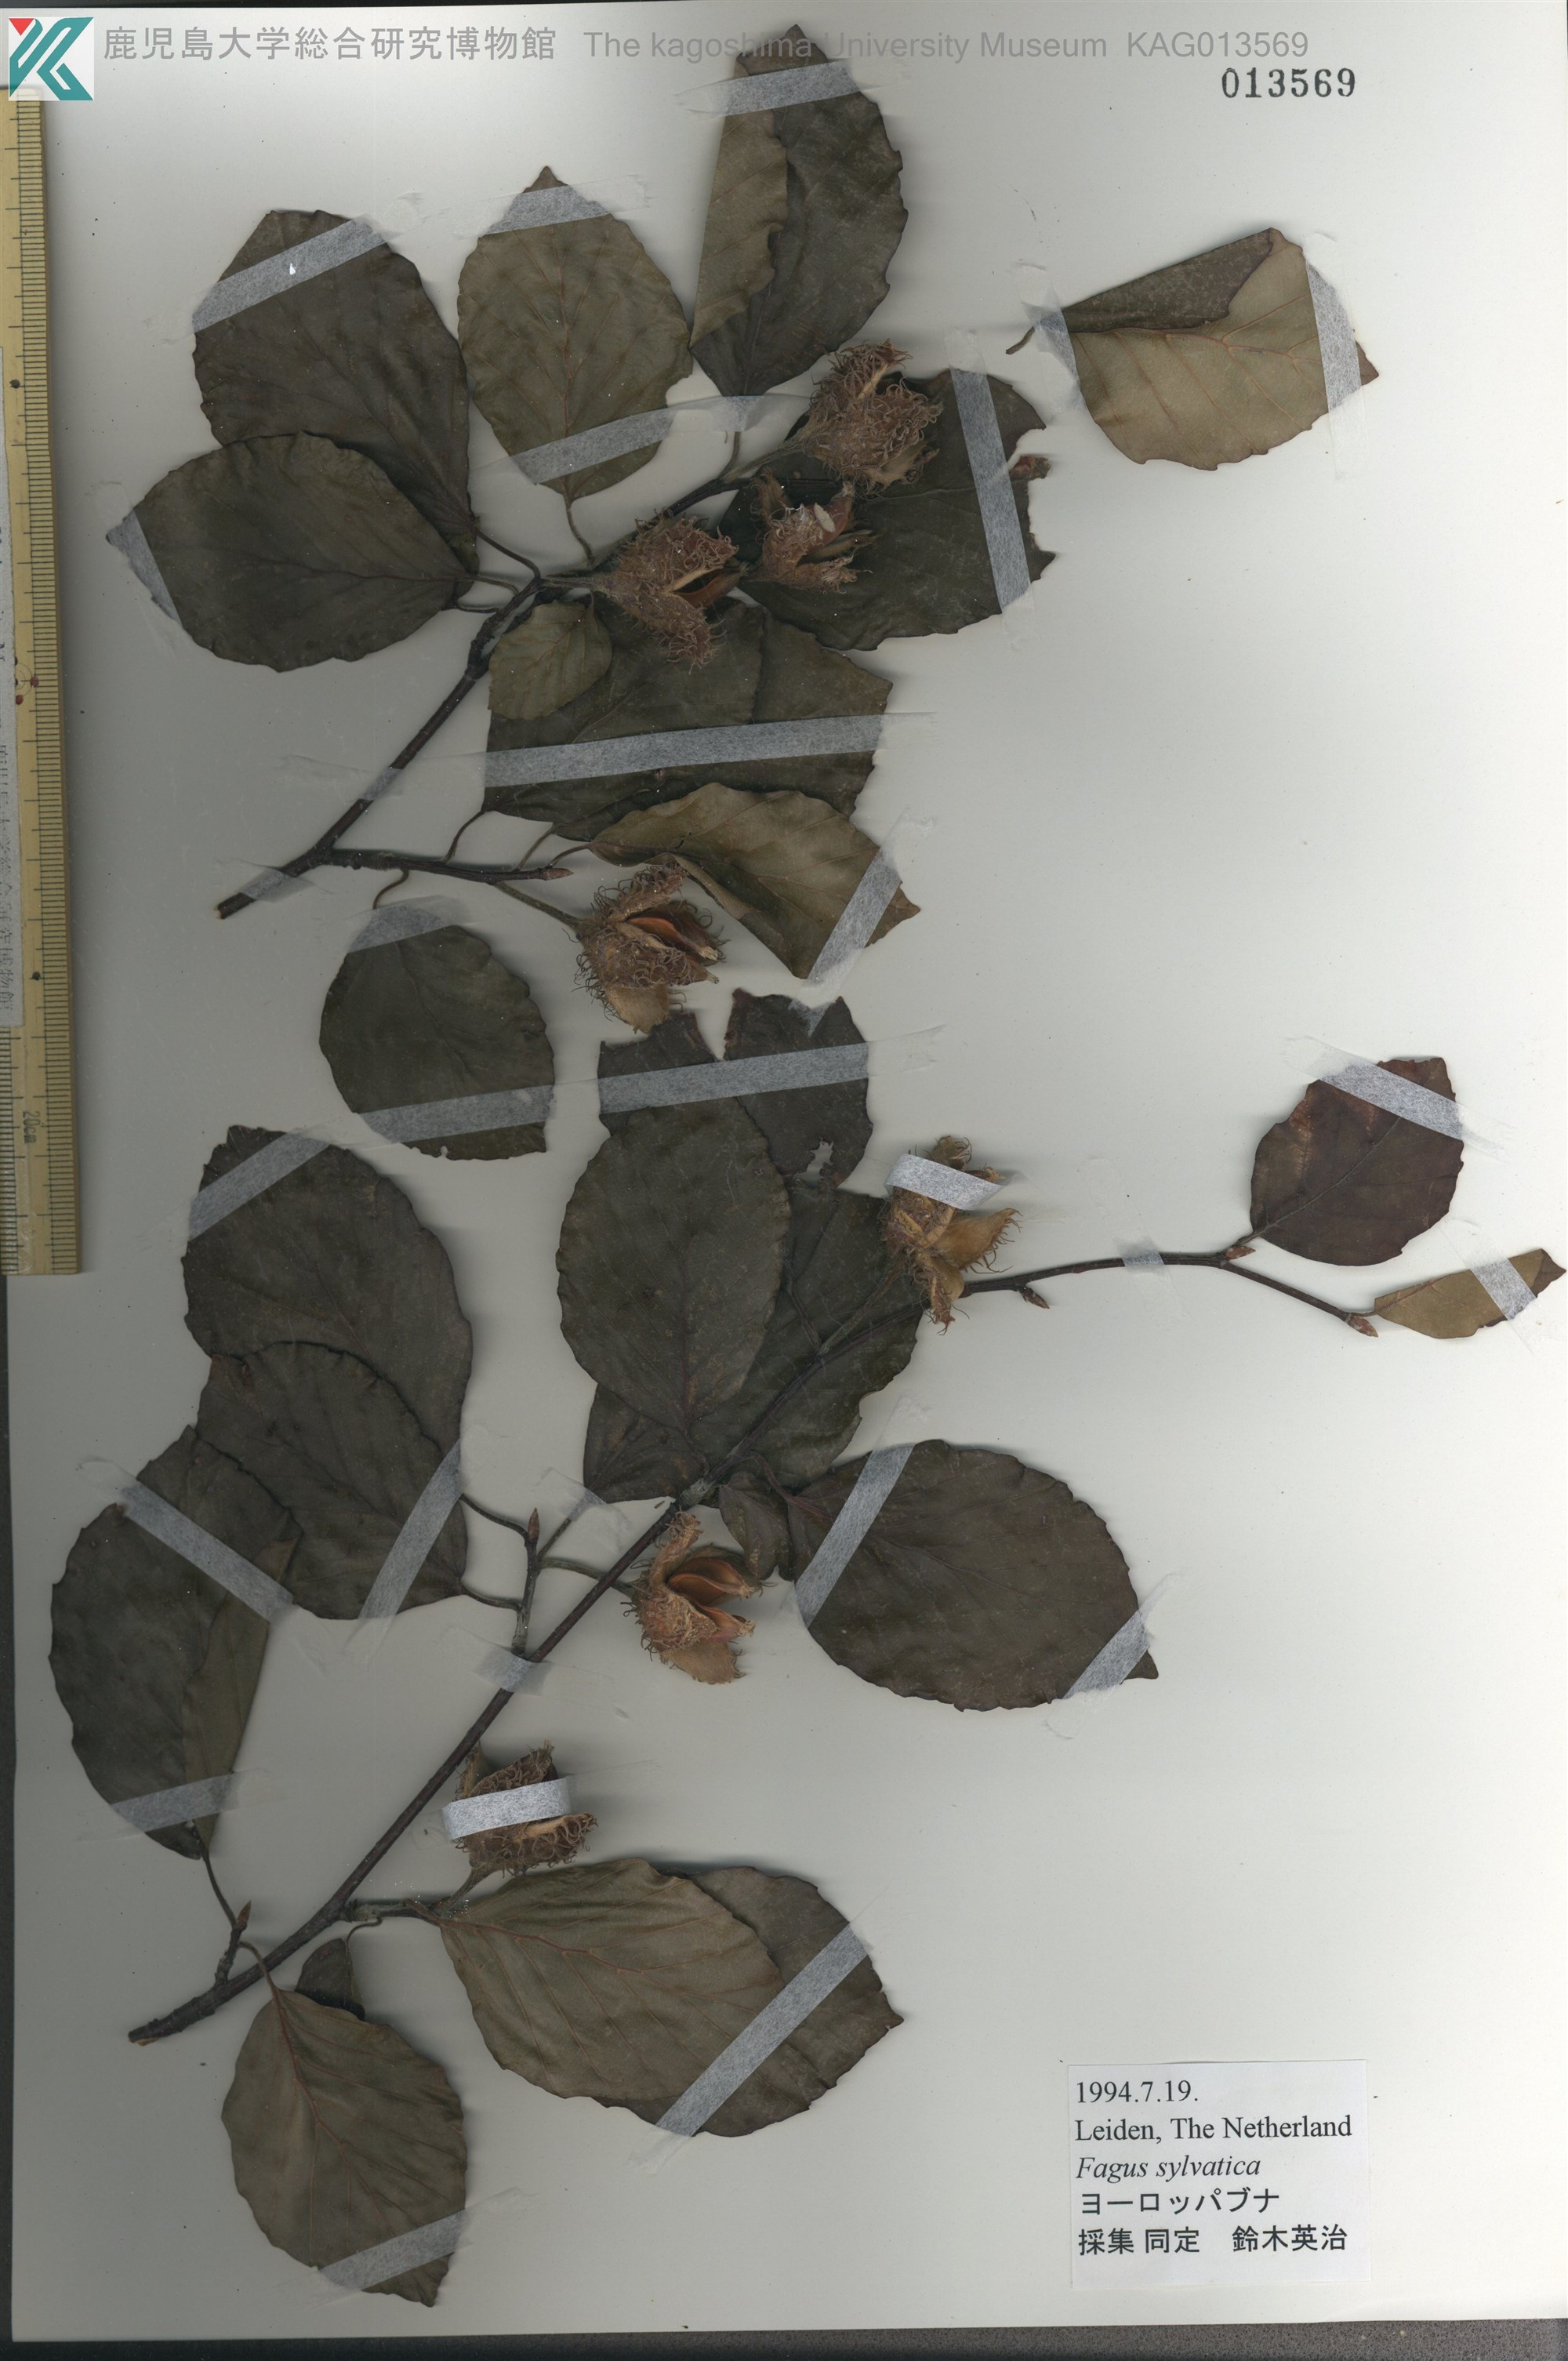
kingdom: Plantae
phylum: Tracheophyta
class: Magnoliopsida
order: Fagales
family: Fagaceae
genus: Fagus
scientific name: Fagus sylvatica
